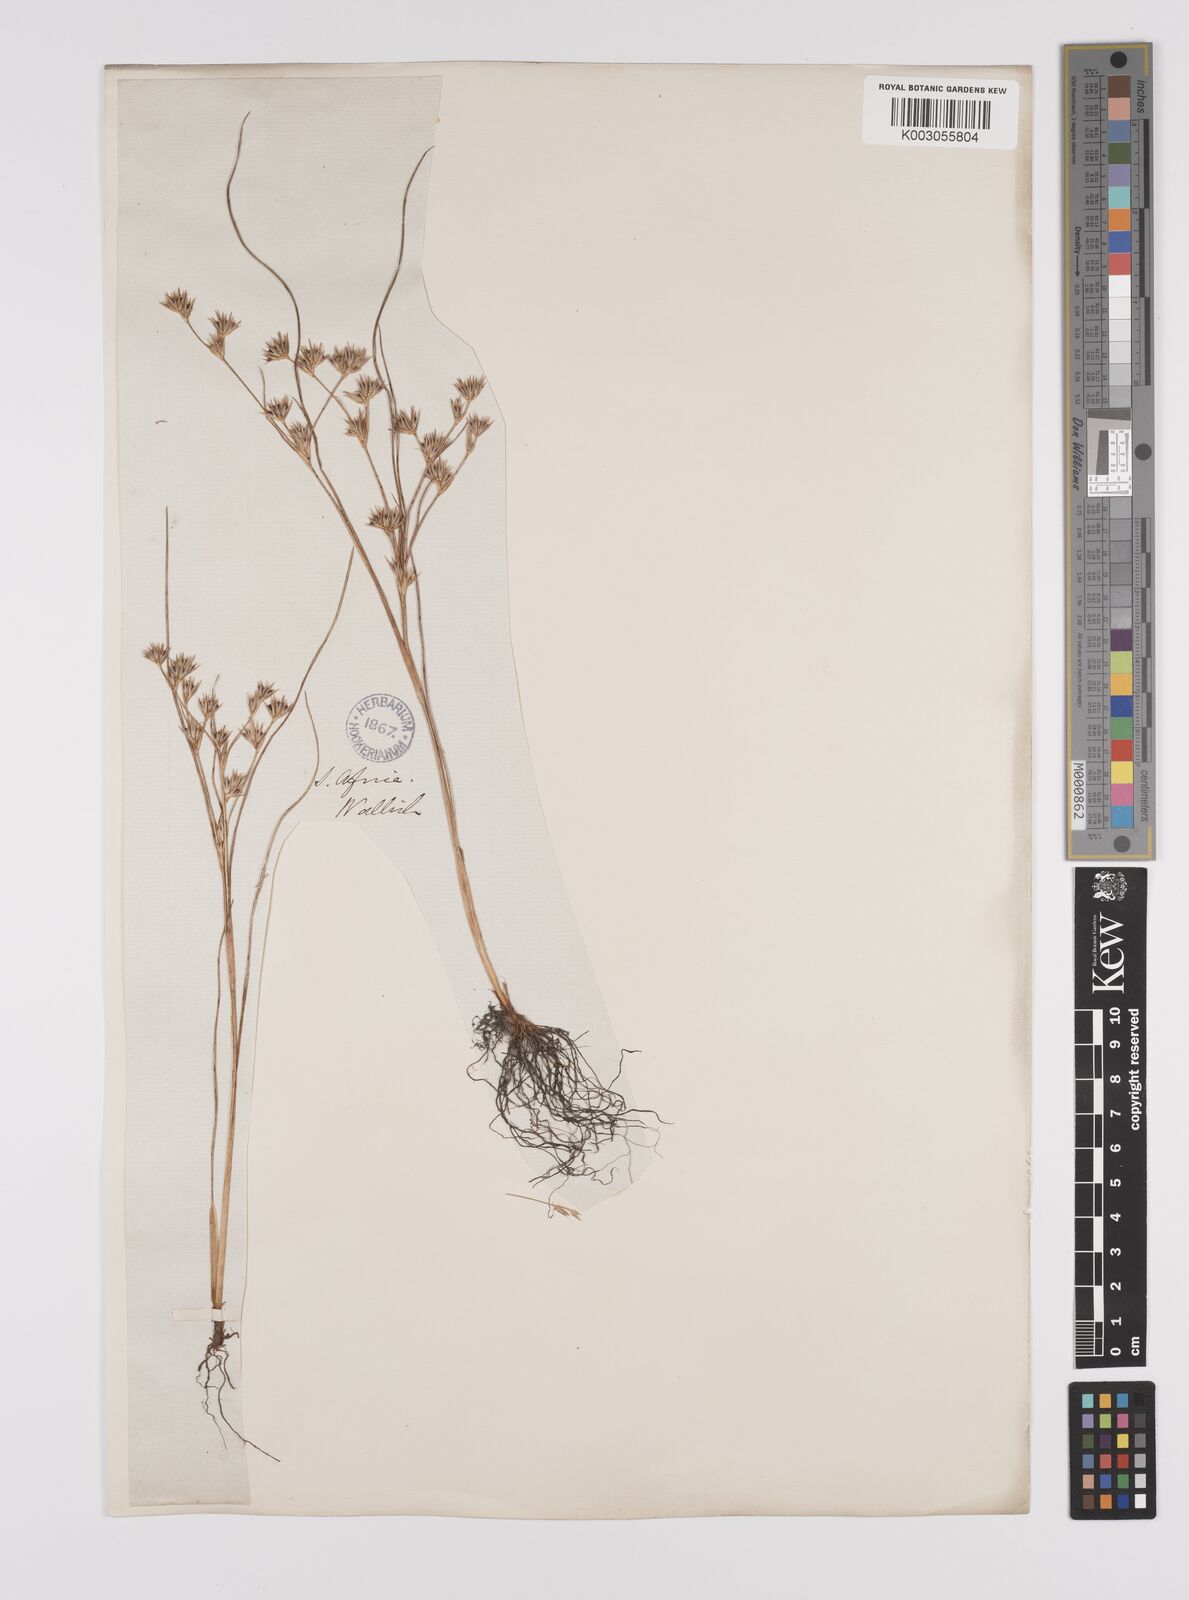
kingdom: Plantae
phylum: Tracheophyta
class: Liliopsida
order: Poales
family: Juncaceae
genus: Juncus
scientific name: Juncus bufonius
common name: Toad rush
